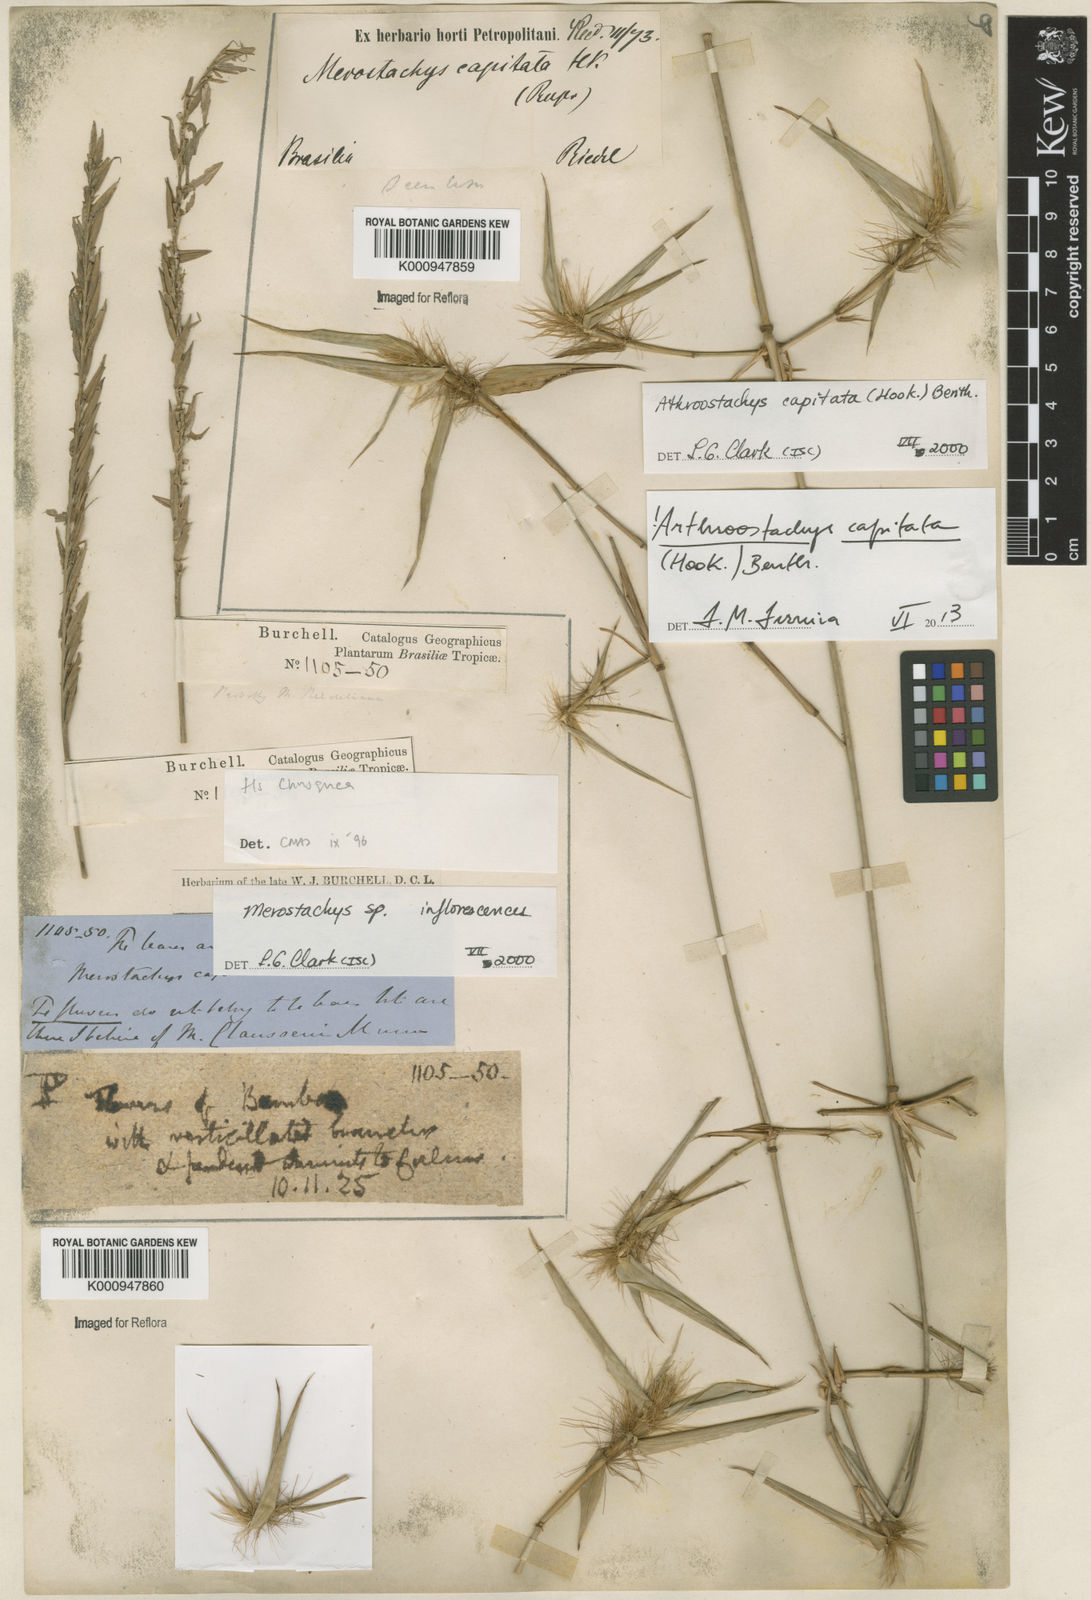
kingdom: Plantae
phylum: Tracheophyta
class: Liliopsida
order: Poales
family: Poaceae
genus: Athroostachys
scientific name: Athroostachys capitata
